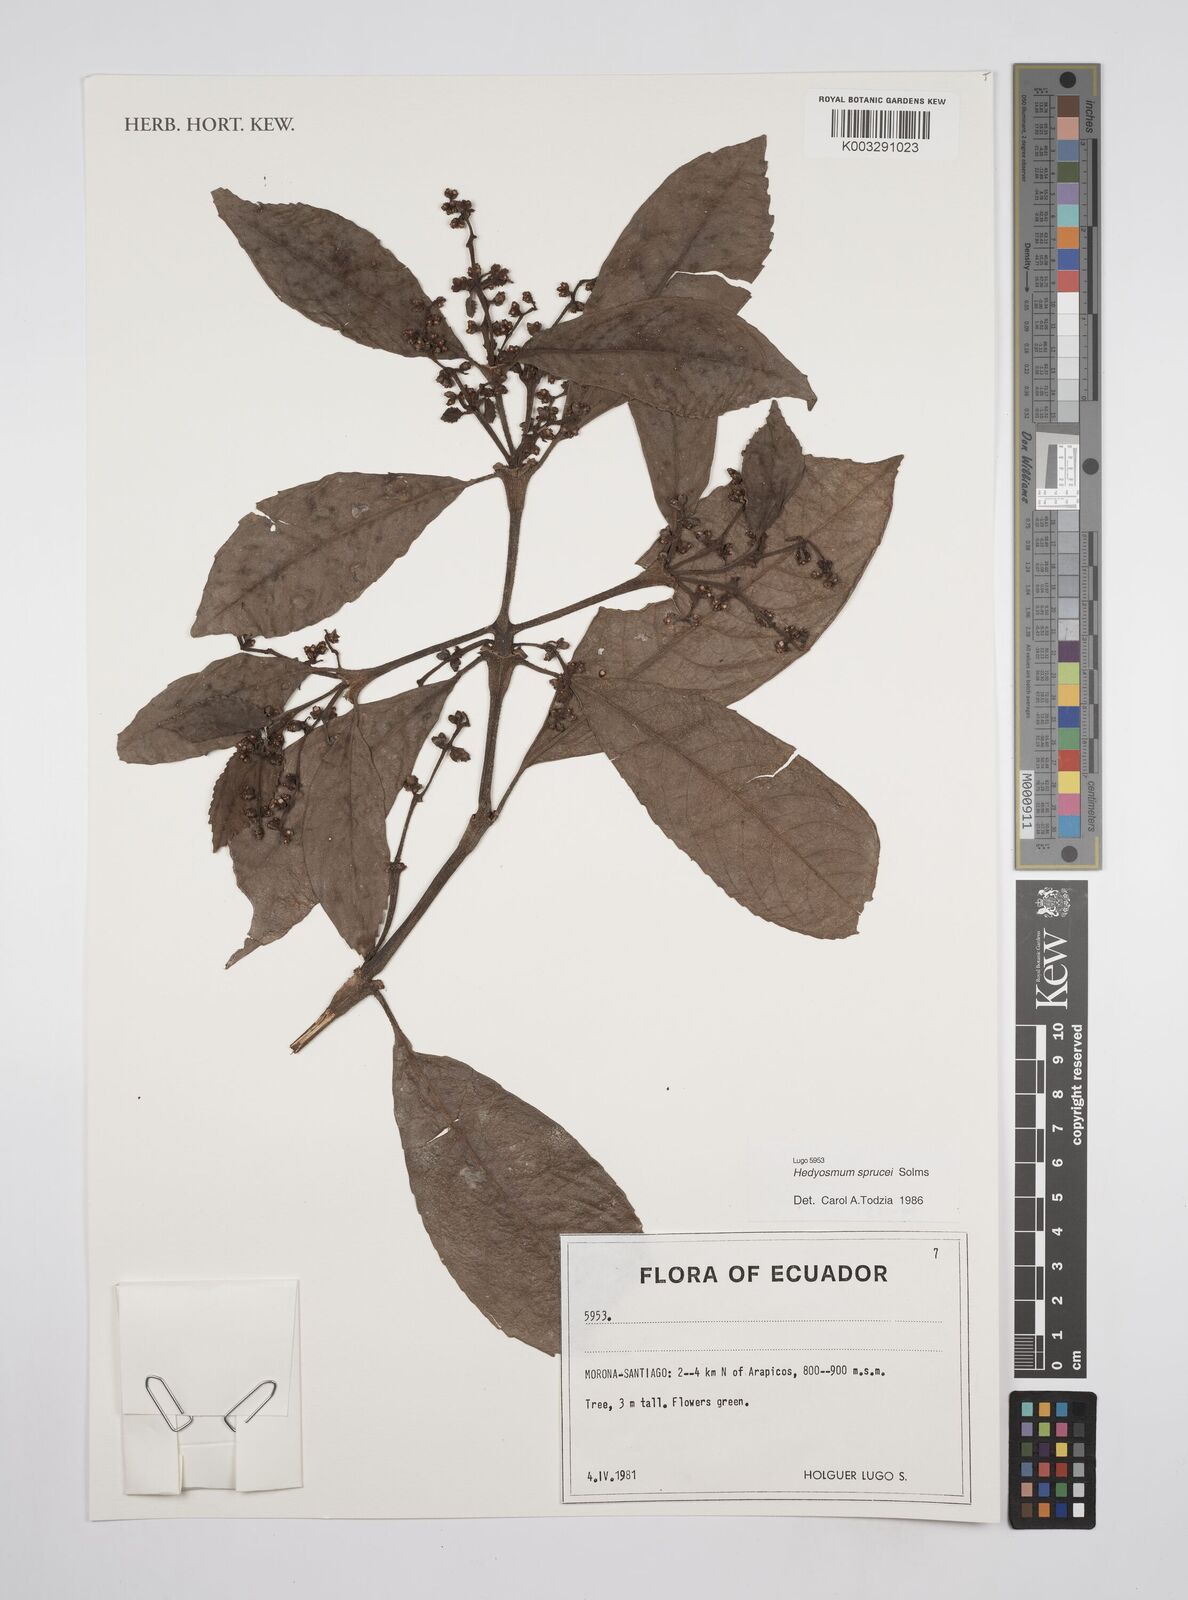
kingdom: Plantae
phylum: Tracheophyta
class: Magnoliopsida
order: Chloranthales
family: Chloranthaceae
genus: Hedyosmum
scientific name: Hedyosmum sprucei
